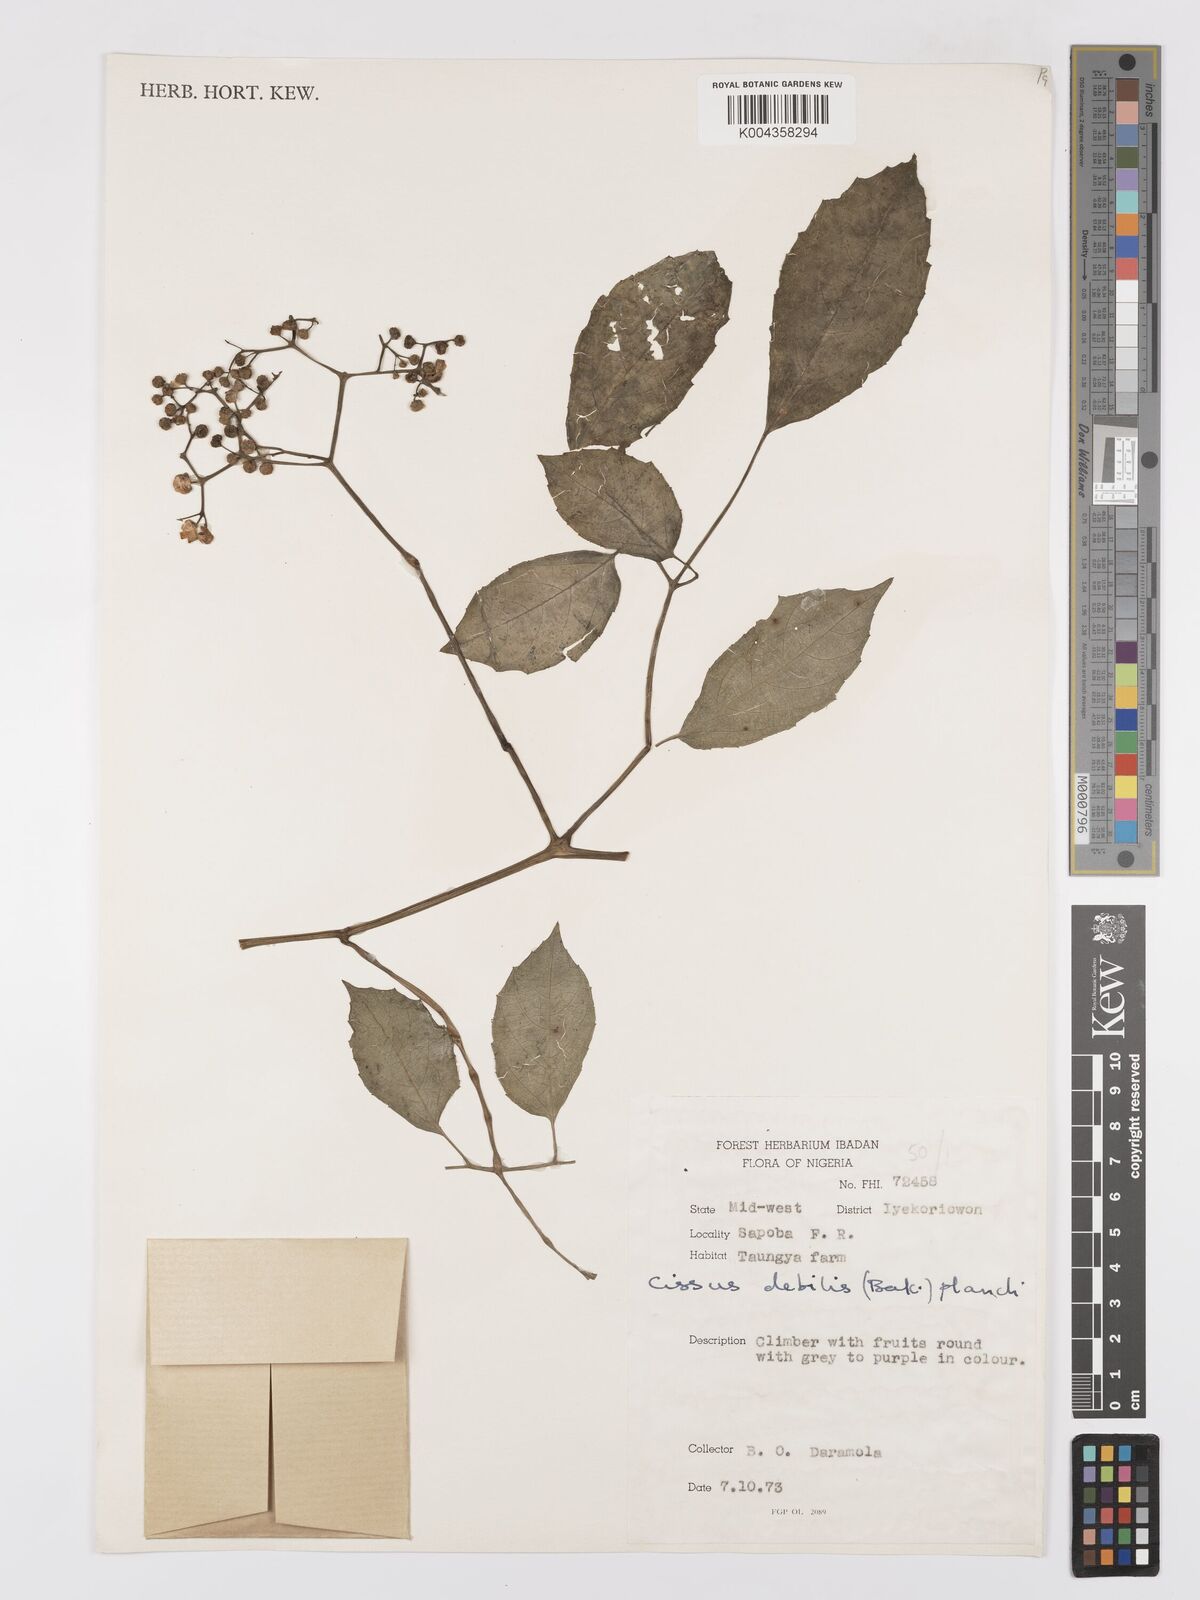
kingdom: Plantae
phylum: Tracheophyta
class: Magnoliopsida
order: Vitales
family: Vitaceae
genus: Afrocayratia
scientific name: Afrocayratia debilis
